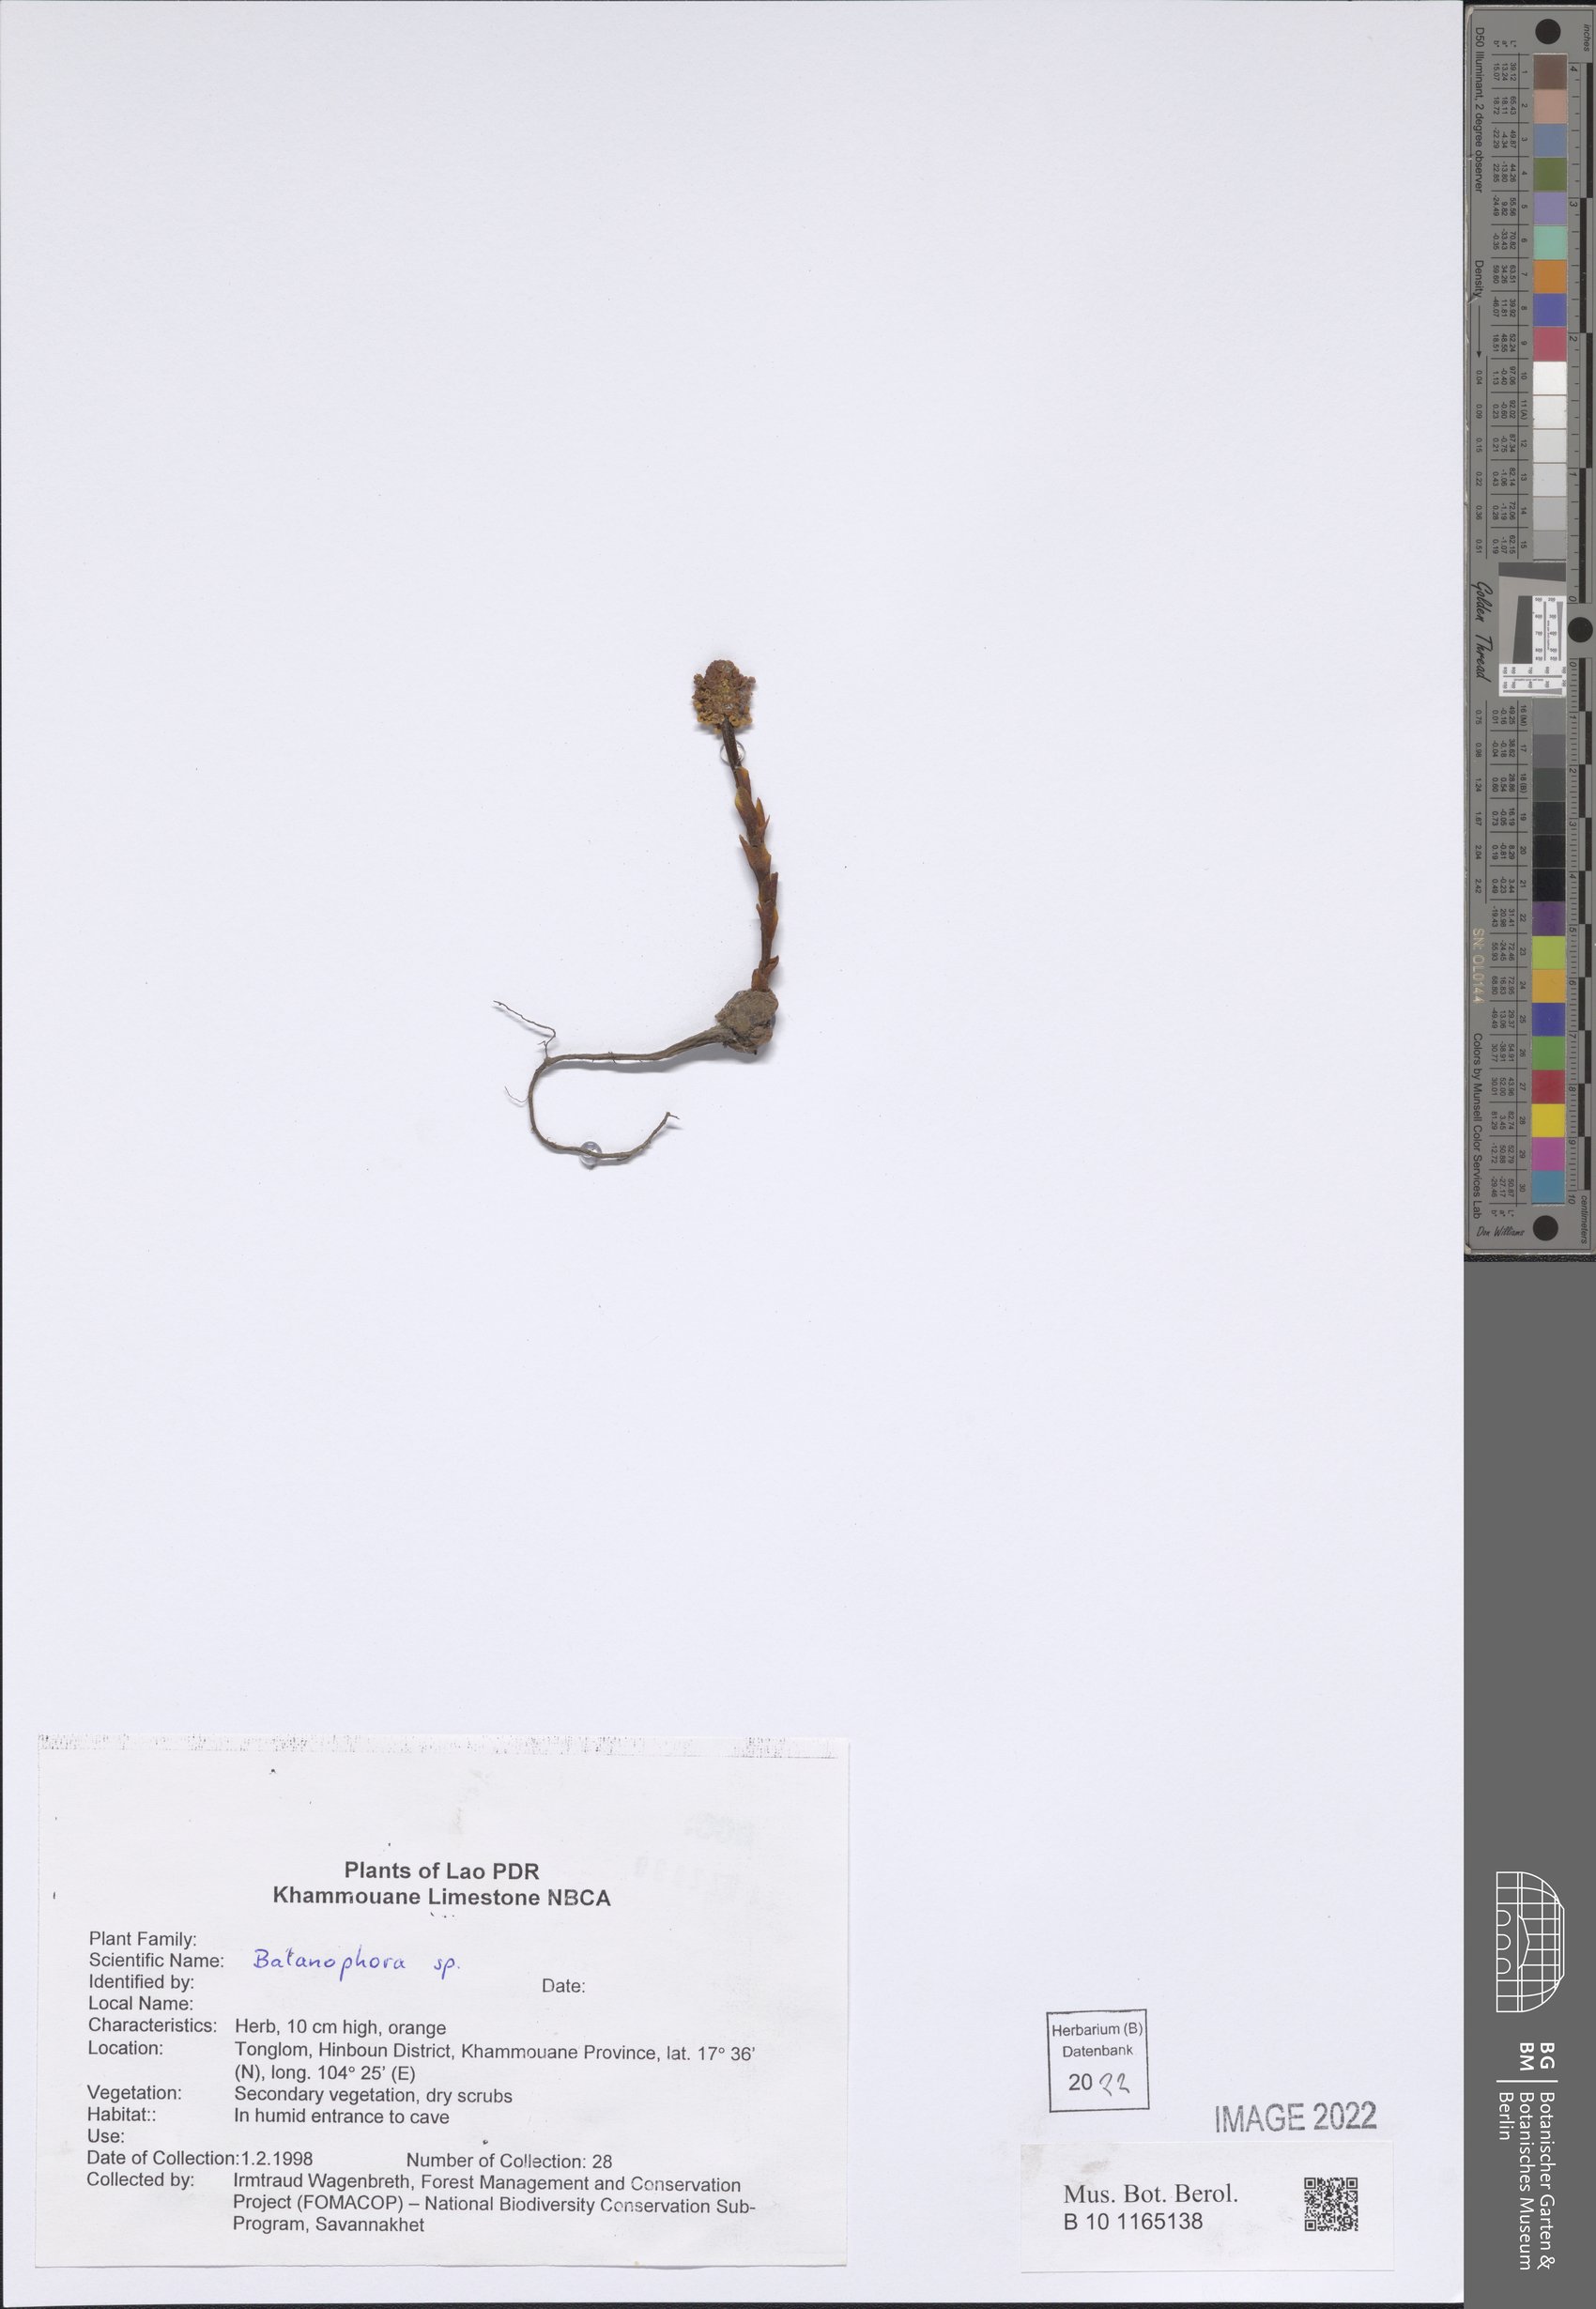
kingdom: Plantae
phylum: Tracheophyta
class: Magnoliopsida
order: Santalales
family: Balanophoraceae
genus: Balanophora
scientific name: Balanophora
